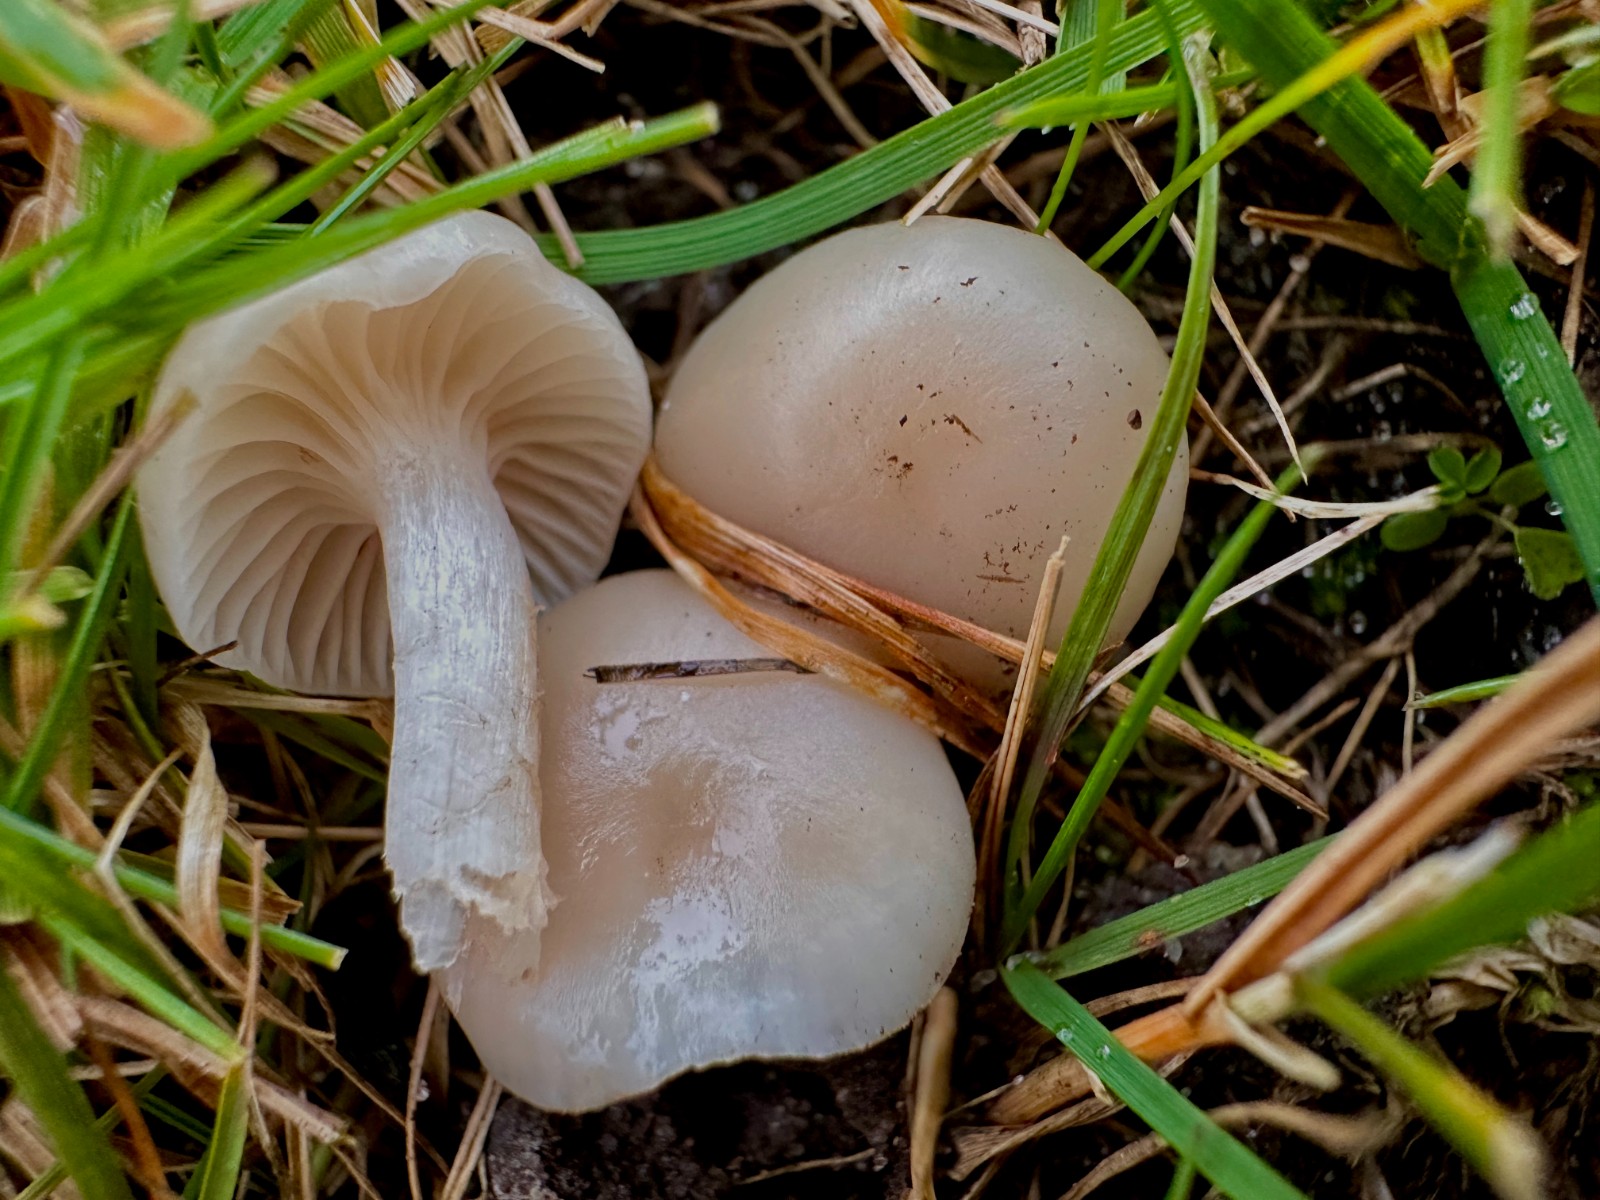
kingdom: Fungi
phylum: Basidiomycota
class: Agaricomycetes
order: Agaricales
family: Hygrophoraceae
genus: Cuphophyllus
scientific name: Cuphophyllus virgineus
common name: isabella-vokshat
